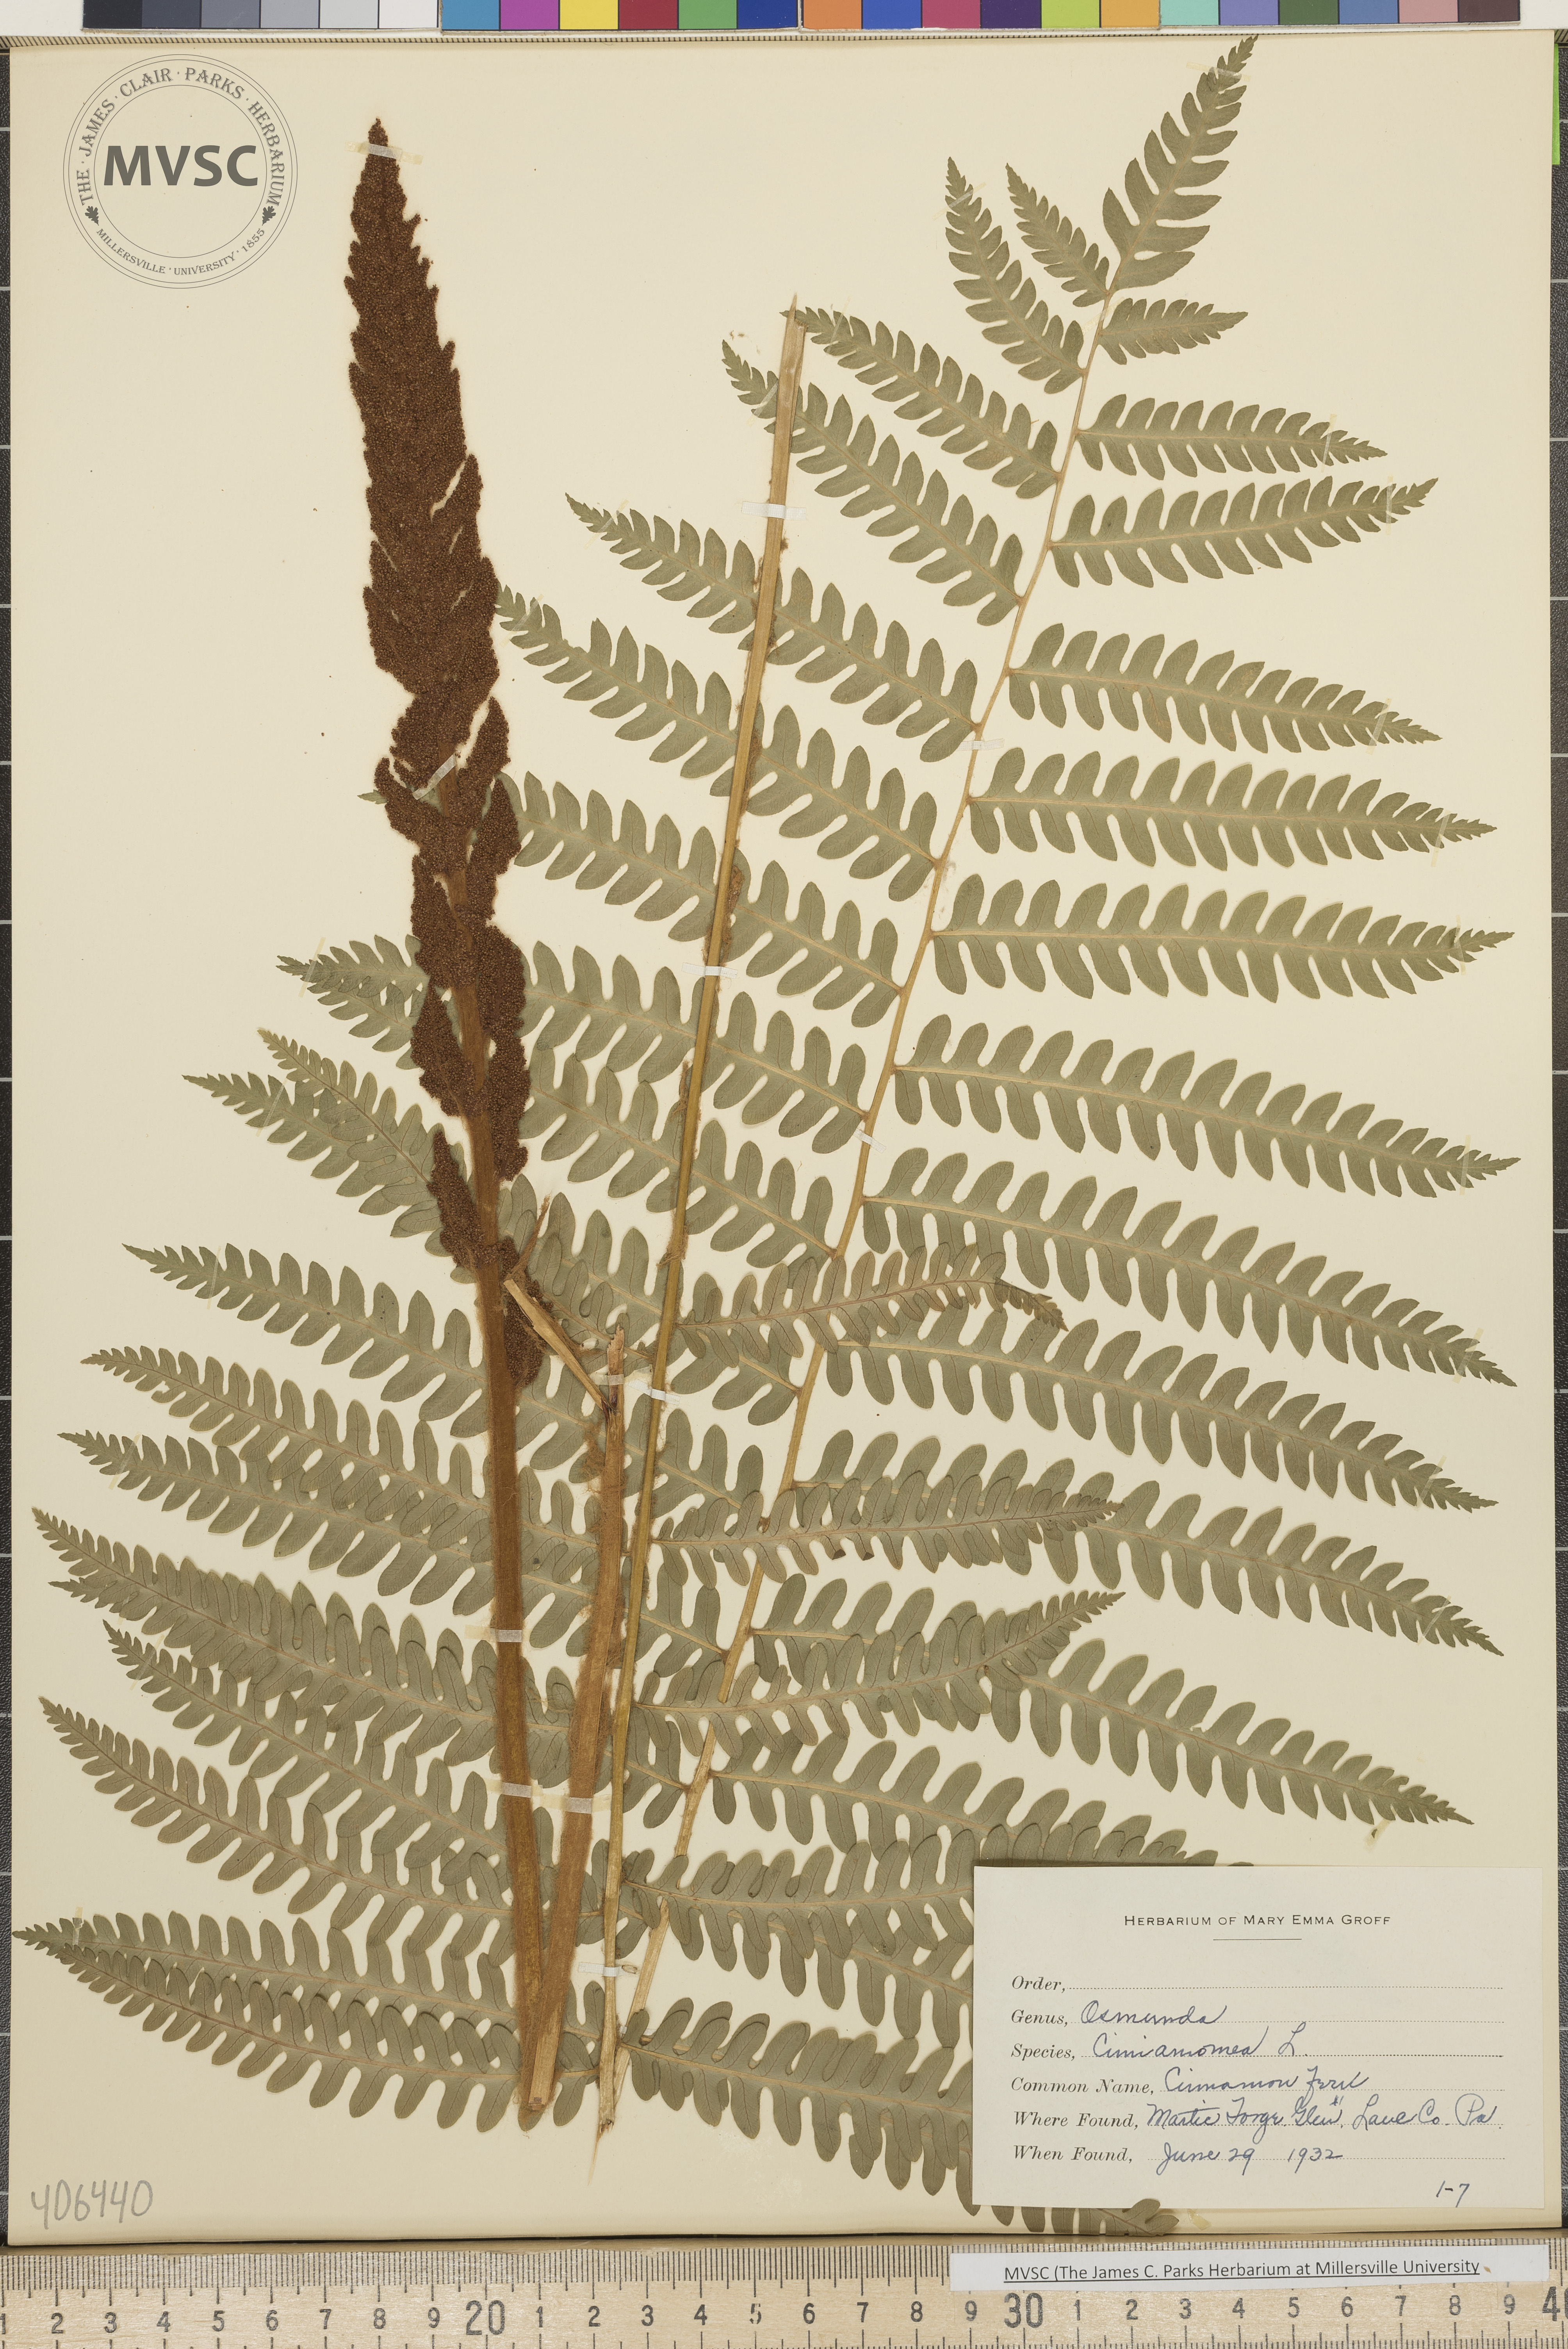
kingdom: Plantae
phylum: Tracheophyta
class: Polypodiopsida
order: Osmundales
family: Osmundaceae
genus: Osmundastrum
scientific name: Osmundastrum cinnamomeum
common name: Cinnamon fern
